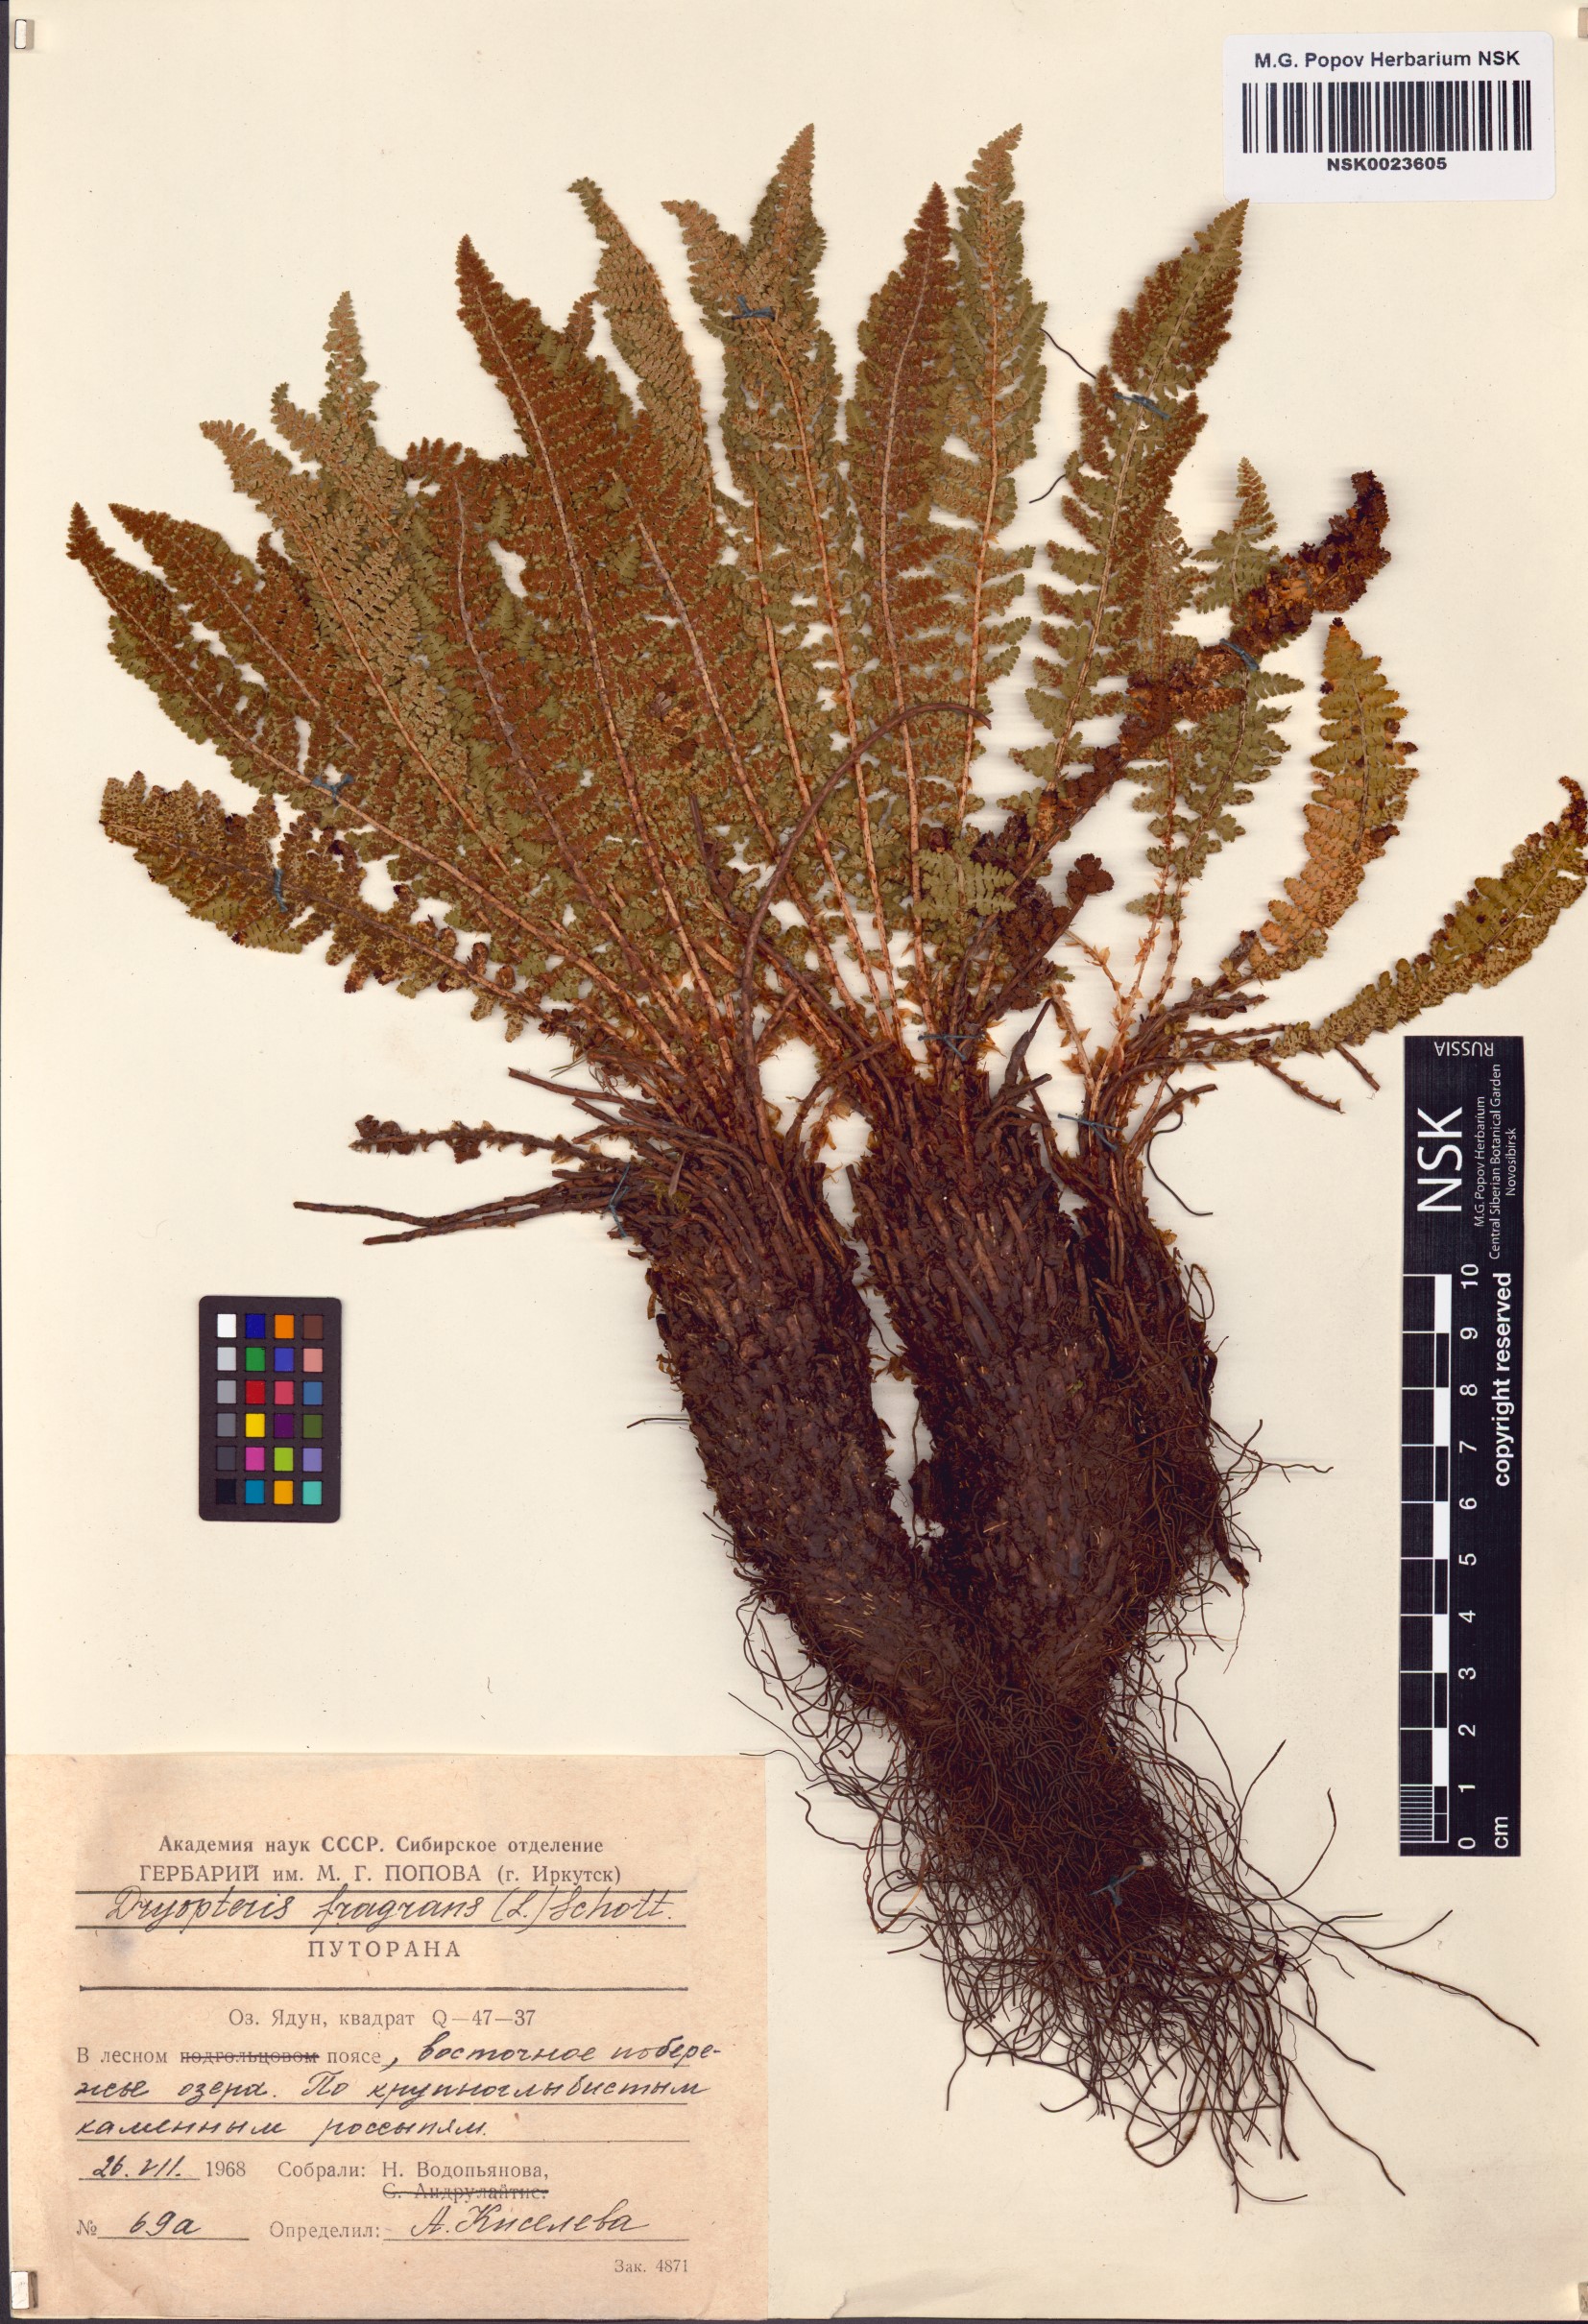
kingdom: Plantae
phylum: Tracheophyta
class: Polypodiopsida
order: Polypodiales
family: Dryopteridaceae
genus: Dryopteris
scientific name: Dryopteris fragrans
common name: Fragrant wood fern
